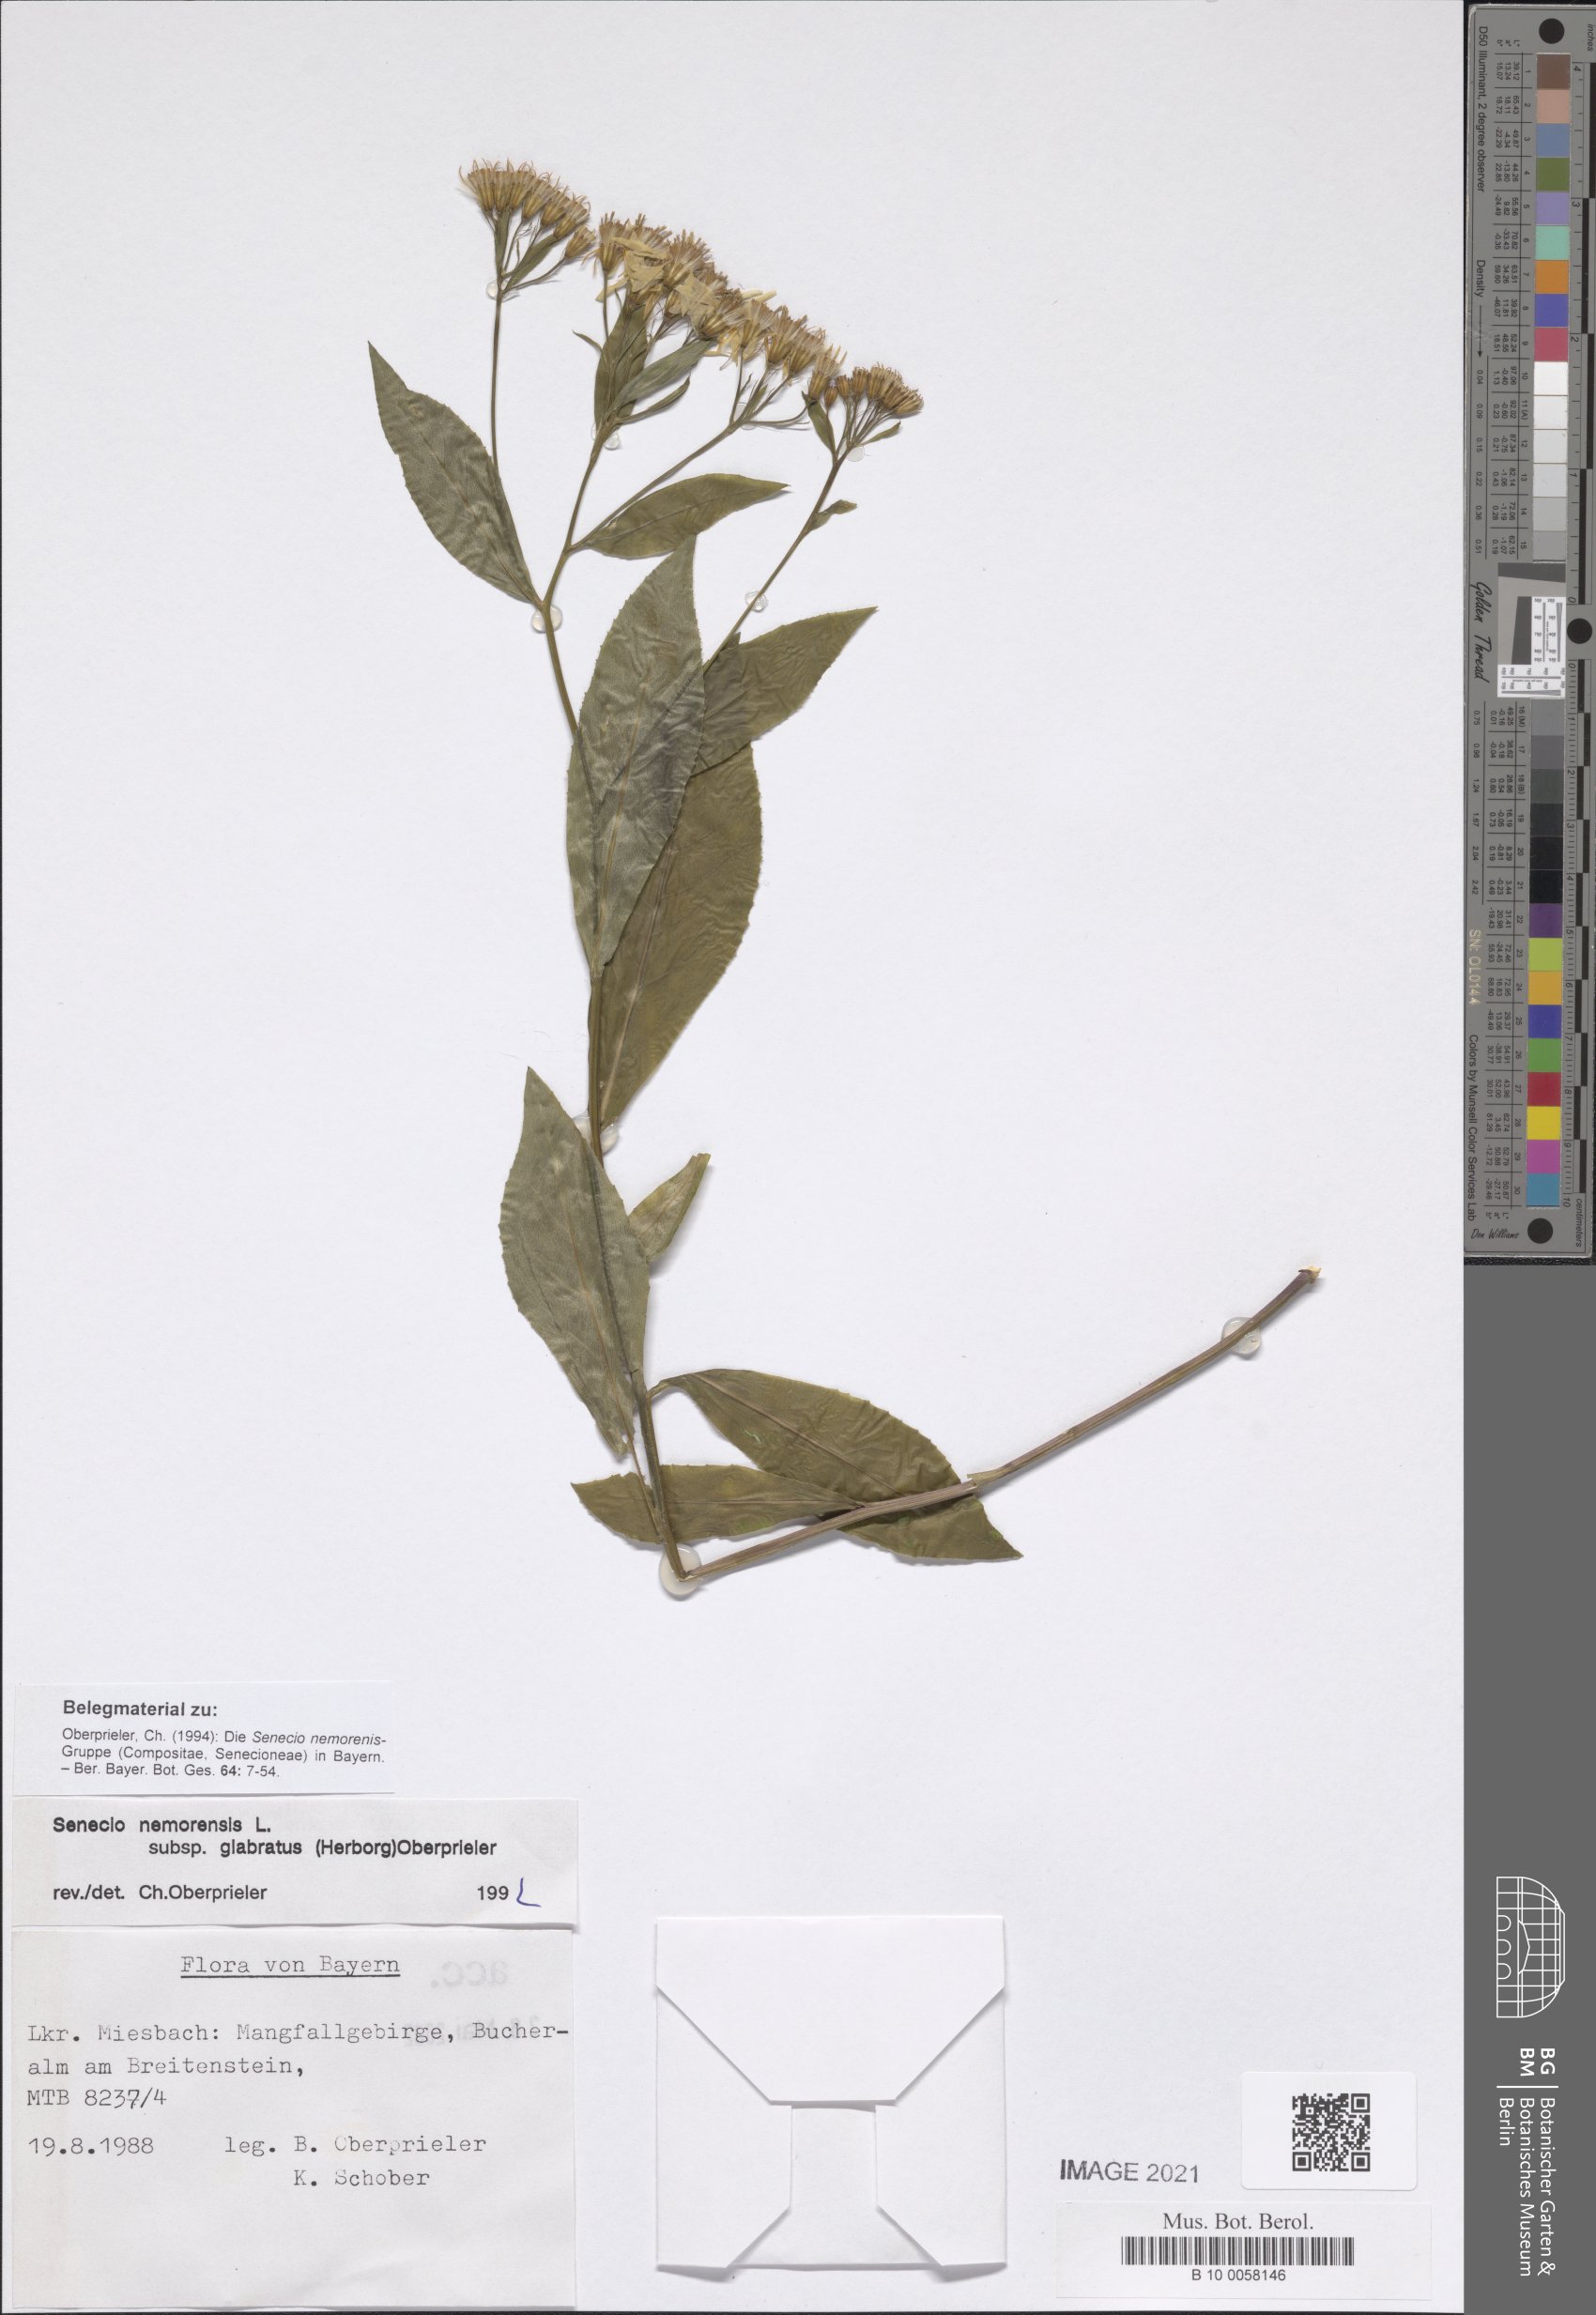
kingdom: Plantae
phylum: Tracheophyta
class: Magnoliopsida
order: Asterales
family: Asteraceae
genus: Senecio
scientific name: Senecio germanicus
